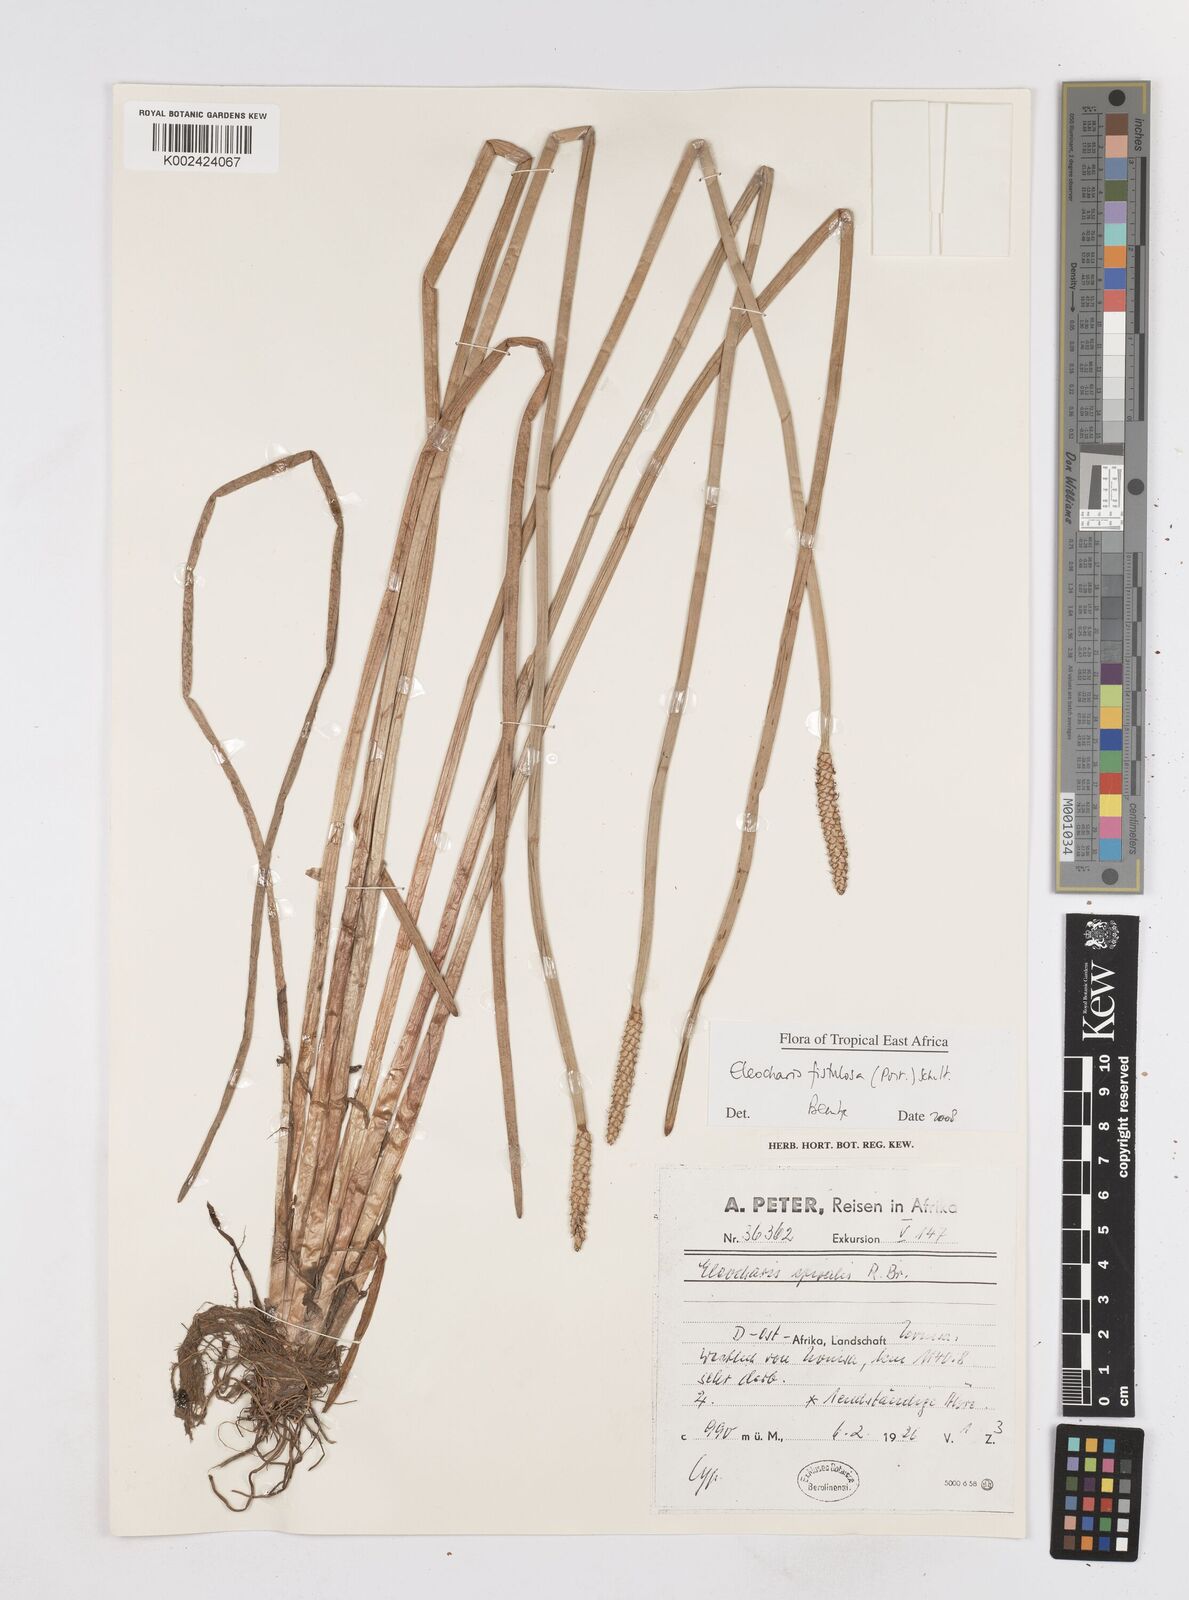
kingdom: Plantae
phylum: Tracheophyta
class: Liliopsida
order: Poales
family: Cyperaceae
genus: Eleocharis
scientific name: Eleocharis acutangula
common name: Acute spikerush
